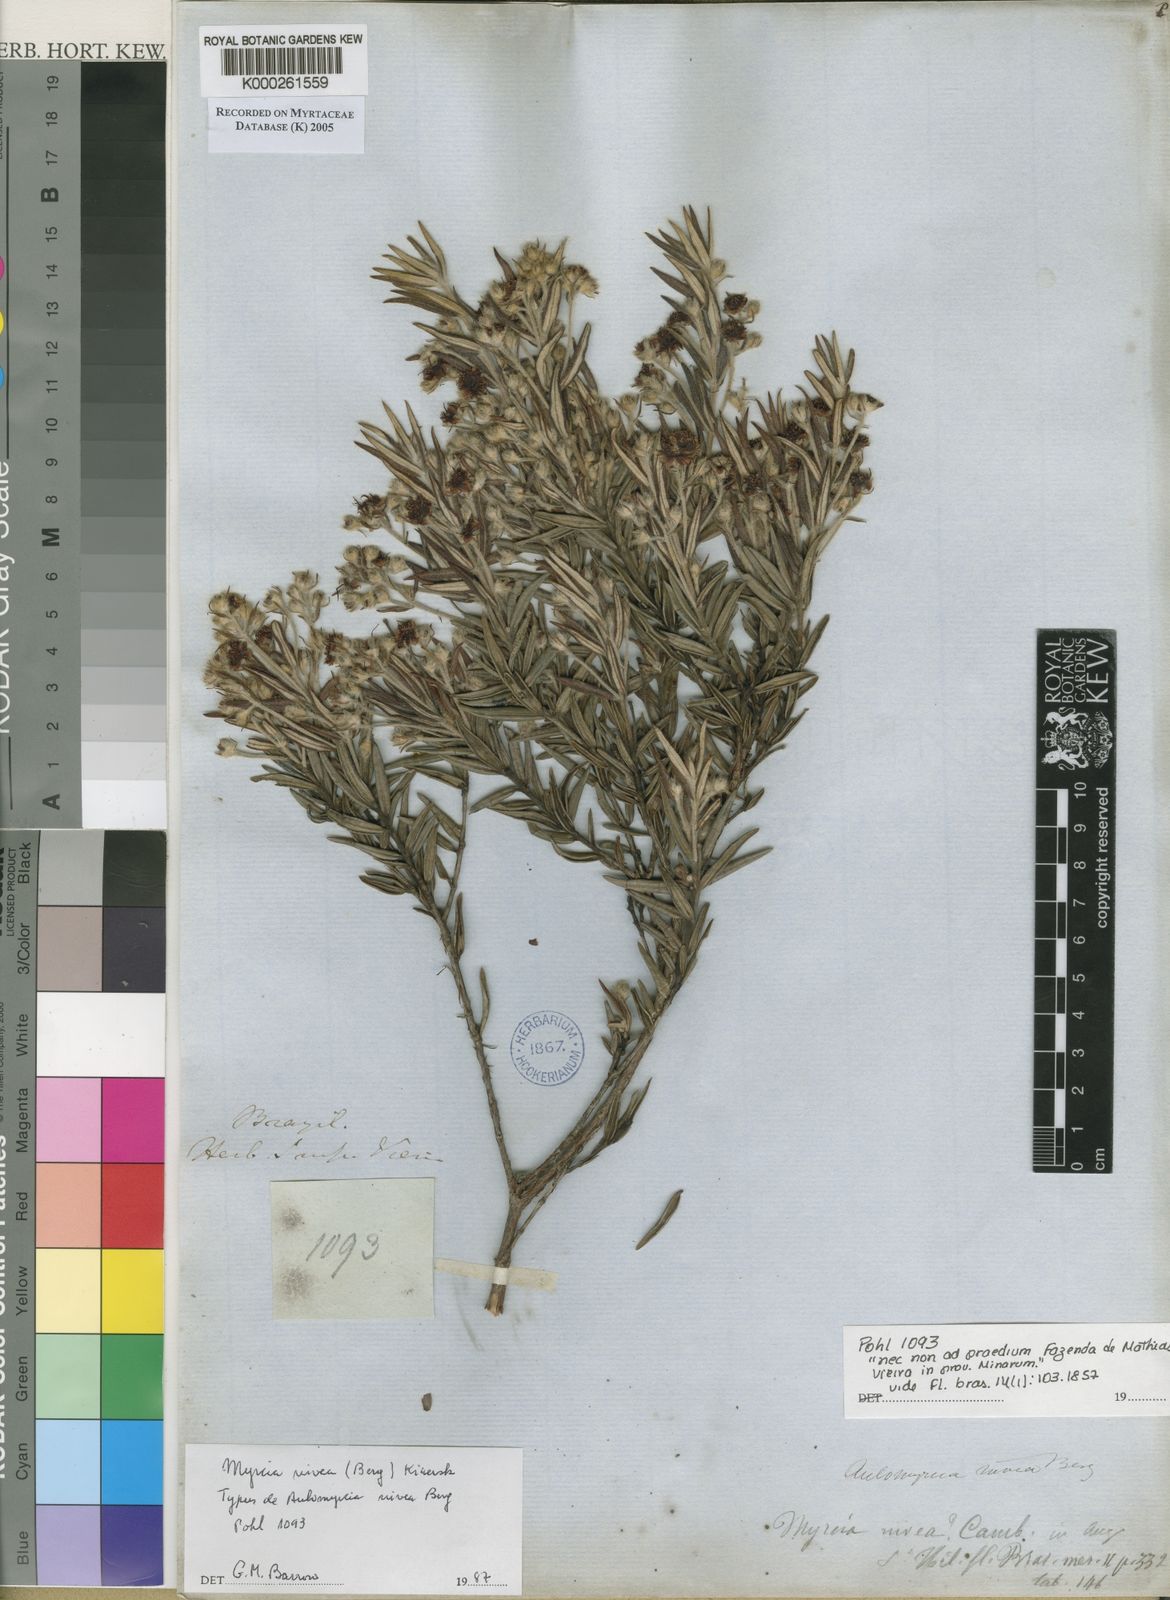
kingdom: Plantae
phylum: Tracheophyta
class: Magnoliopsida
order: Myrtales
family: Myrtaceae
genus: Myrcia
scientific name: Myrcia nivea
